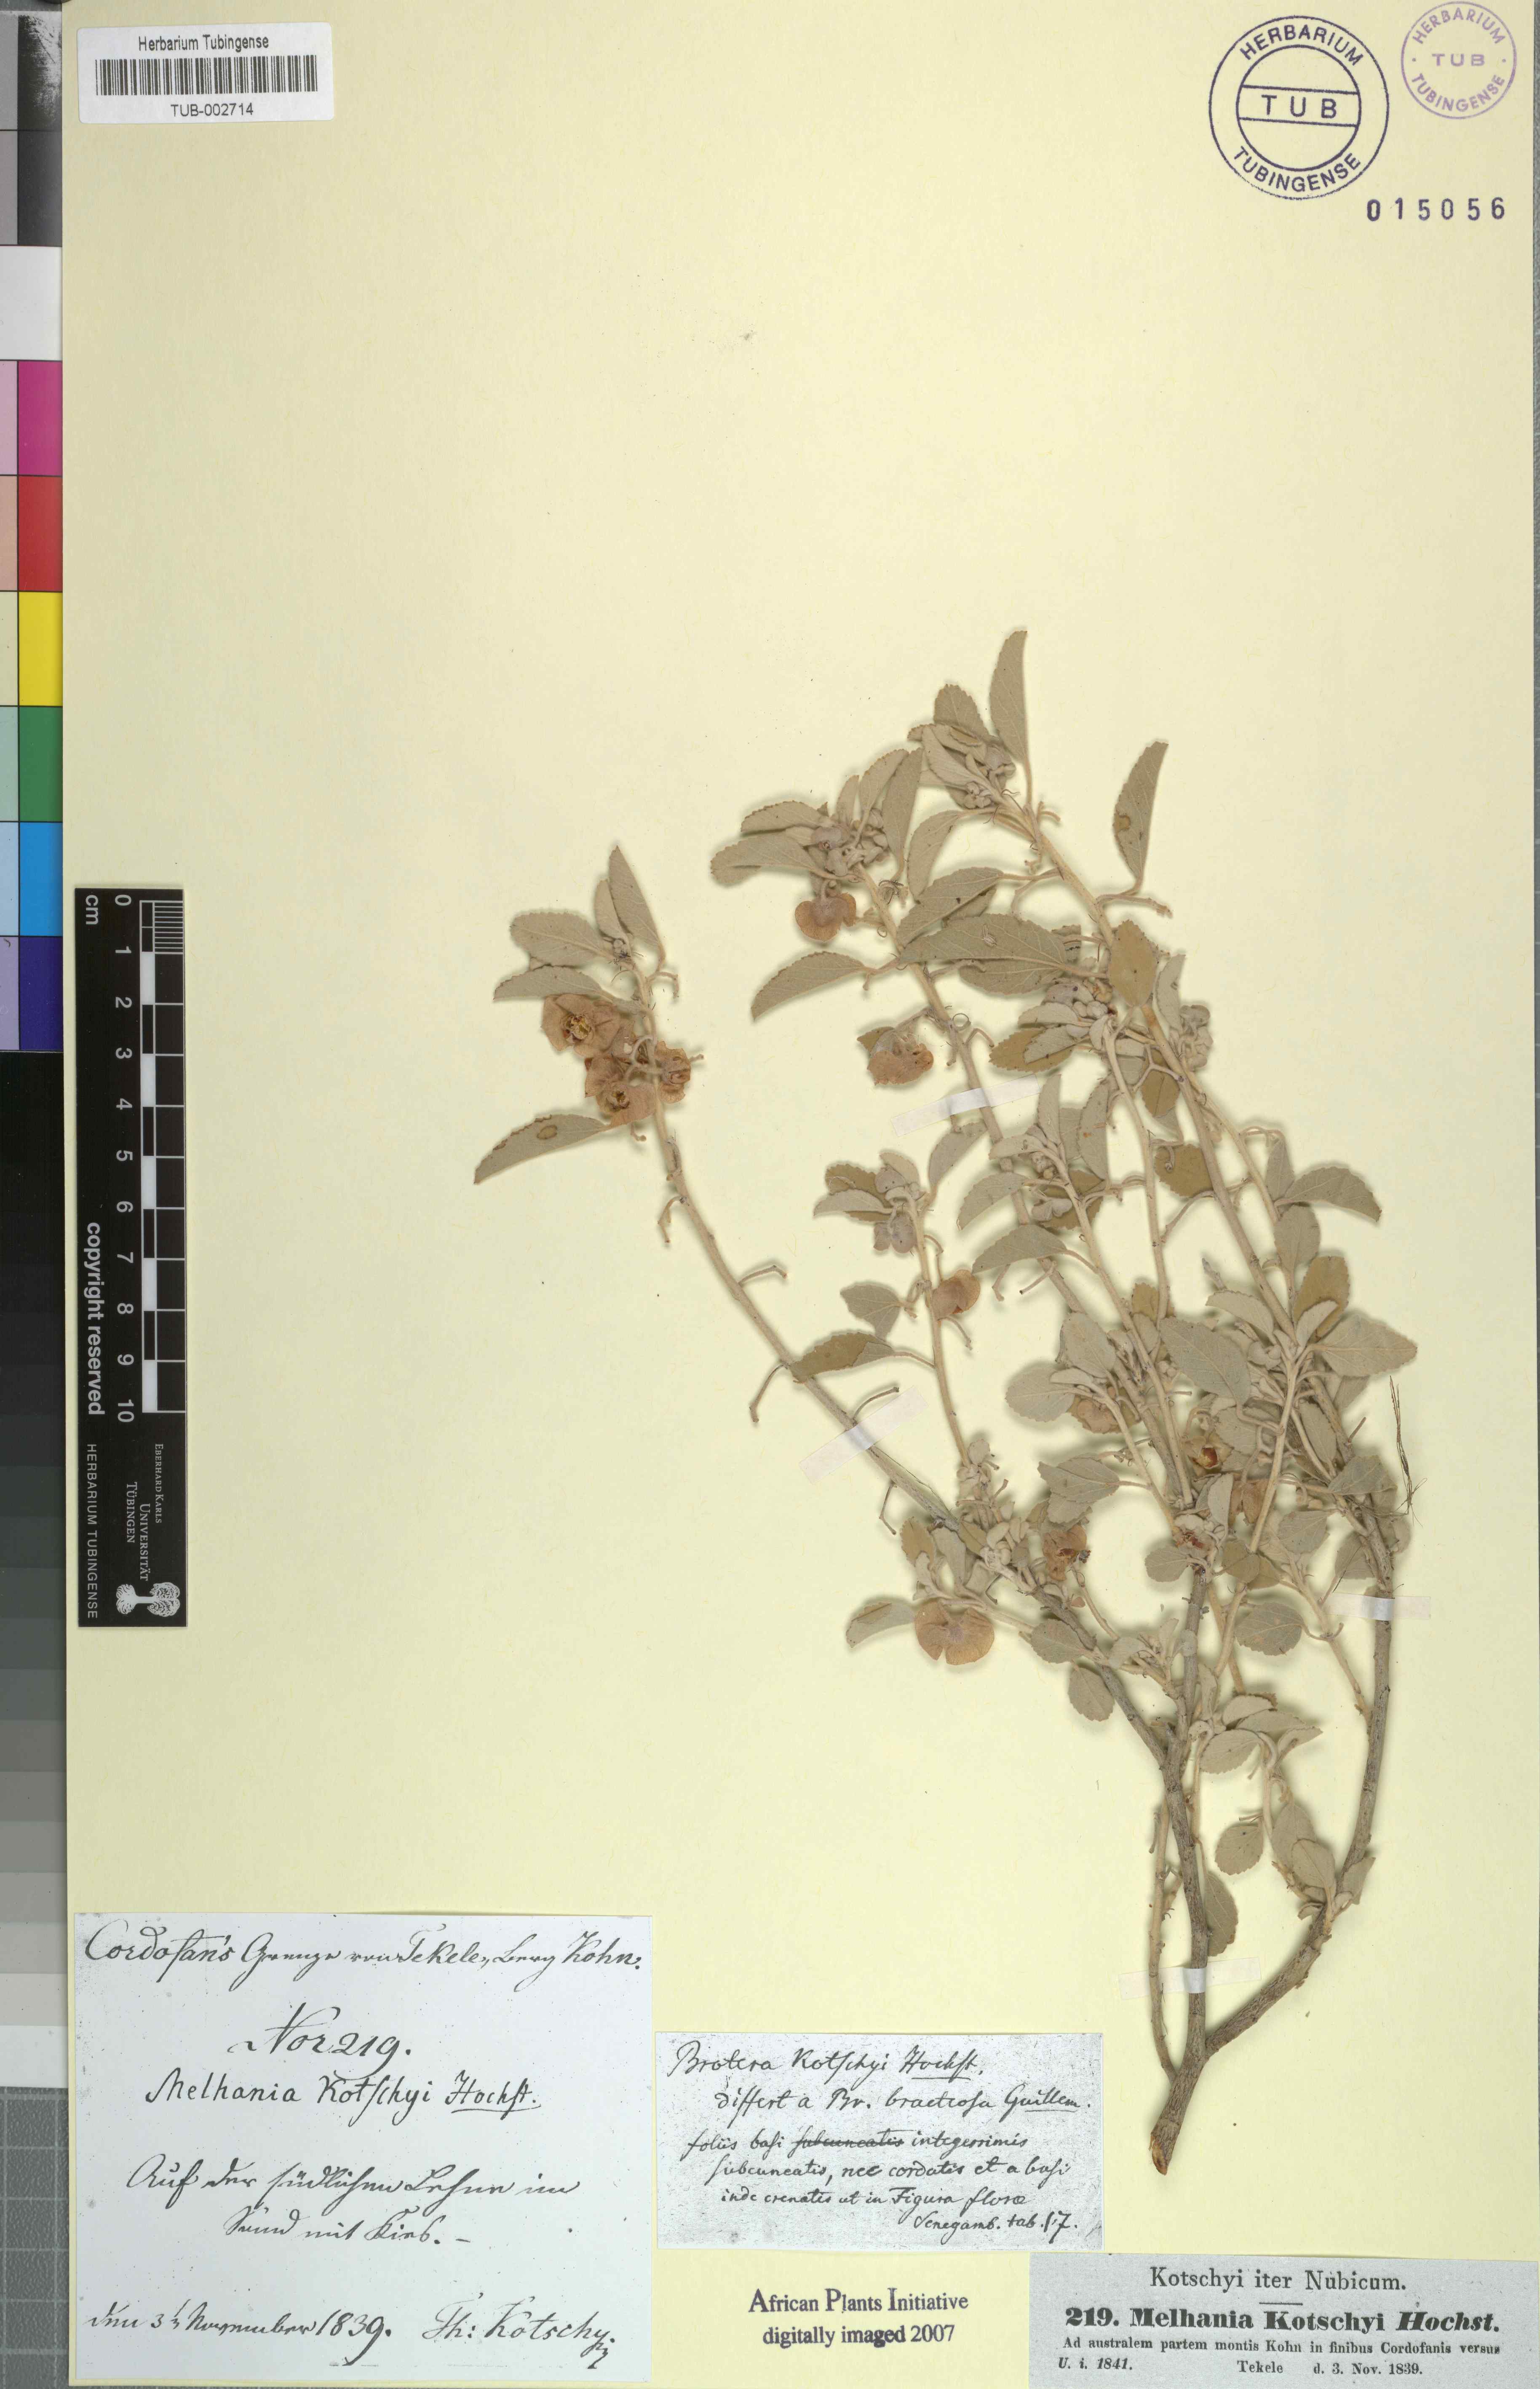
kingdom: Plantae
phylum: Tracheophyta
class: Magnoliopsida
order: Malvales
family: Malvaceae
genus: Melhania
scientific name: Melhania denhamii
